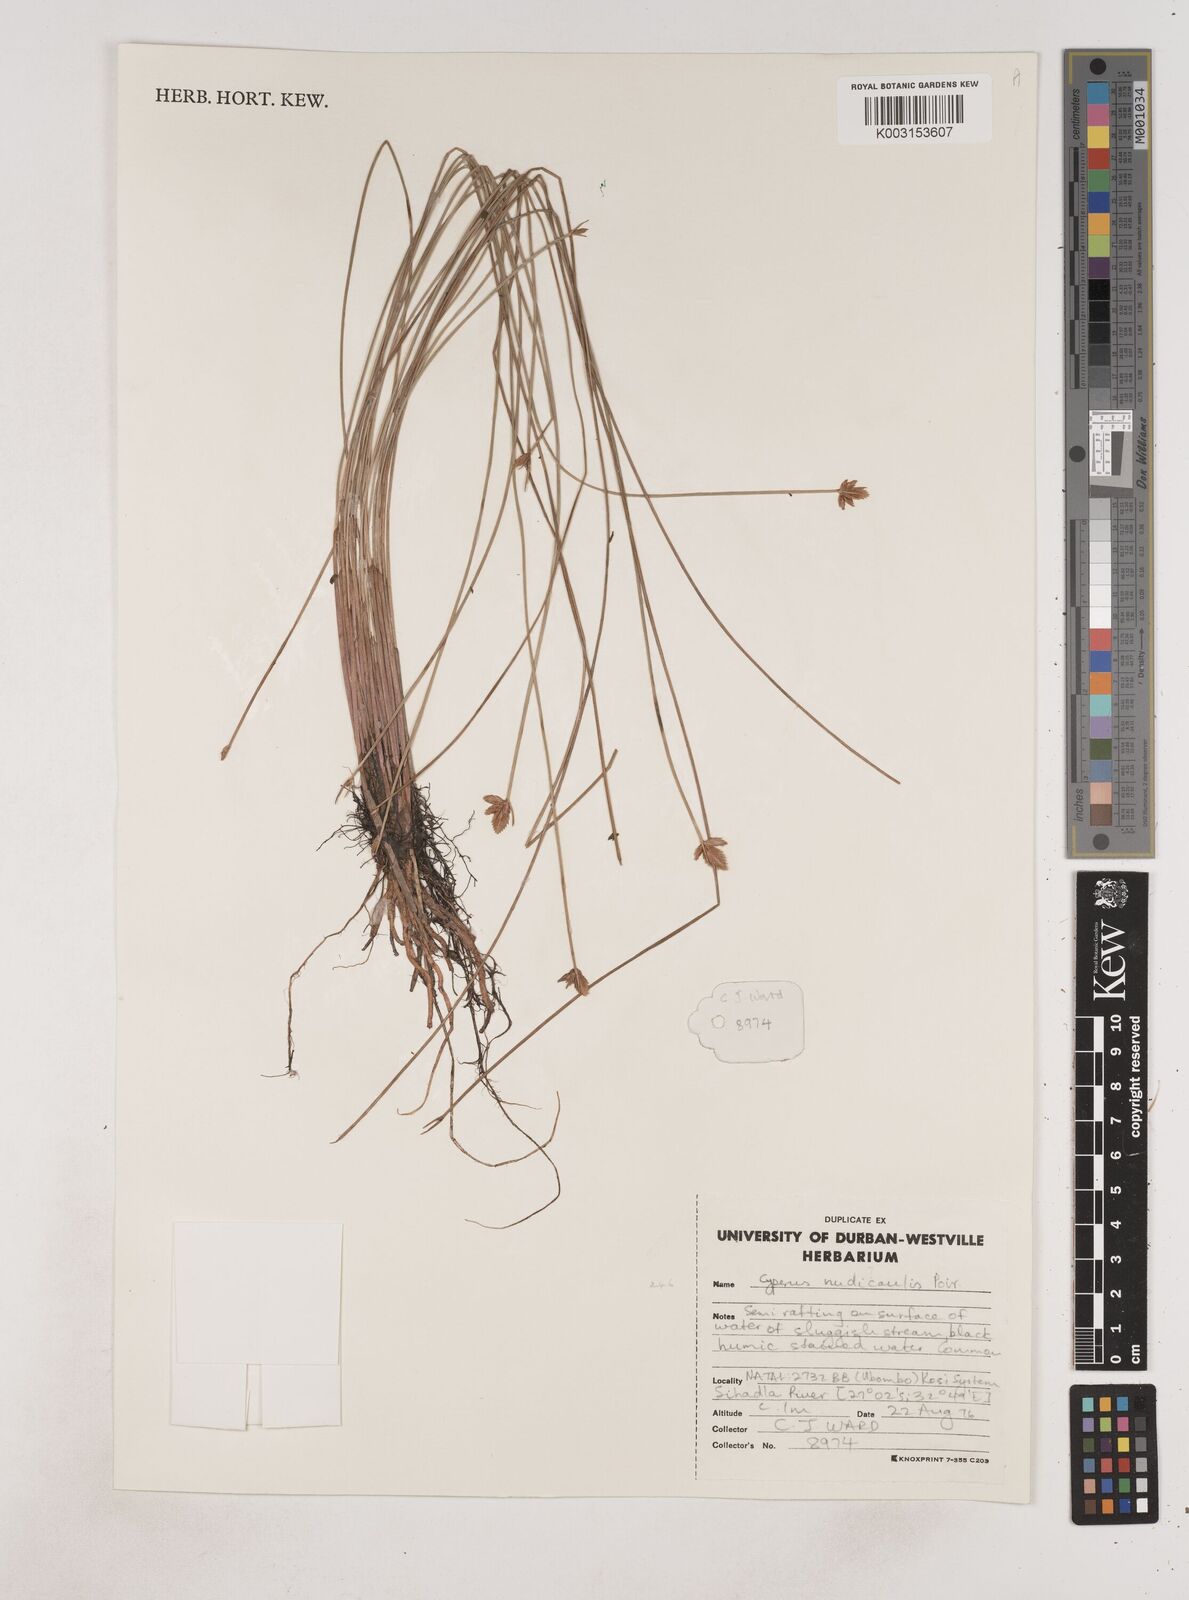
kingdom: Plantae
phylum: Tracheophyta
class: Liliopsida
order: Poales
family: Cyperaceae
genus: Cyperus
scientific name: Cyperus pectinatus
